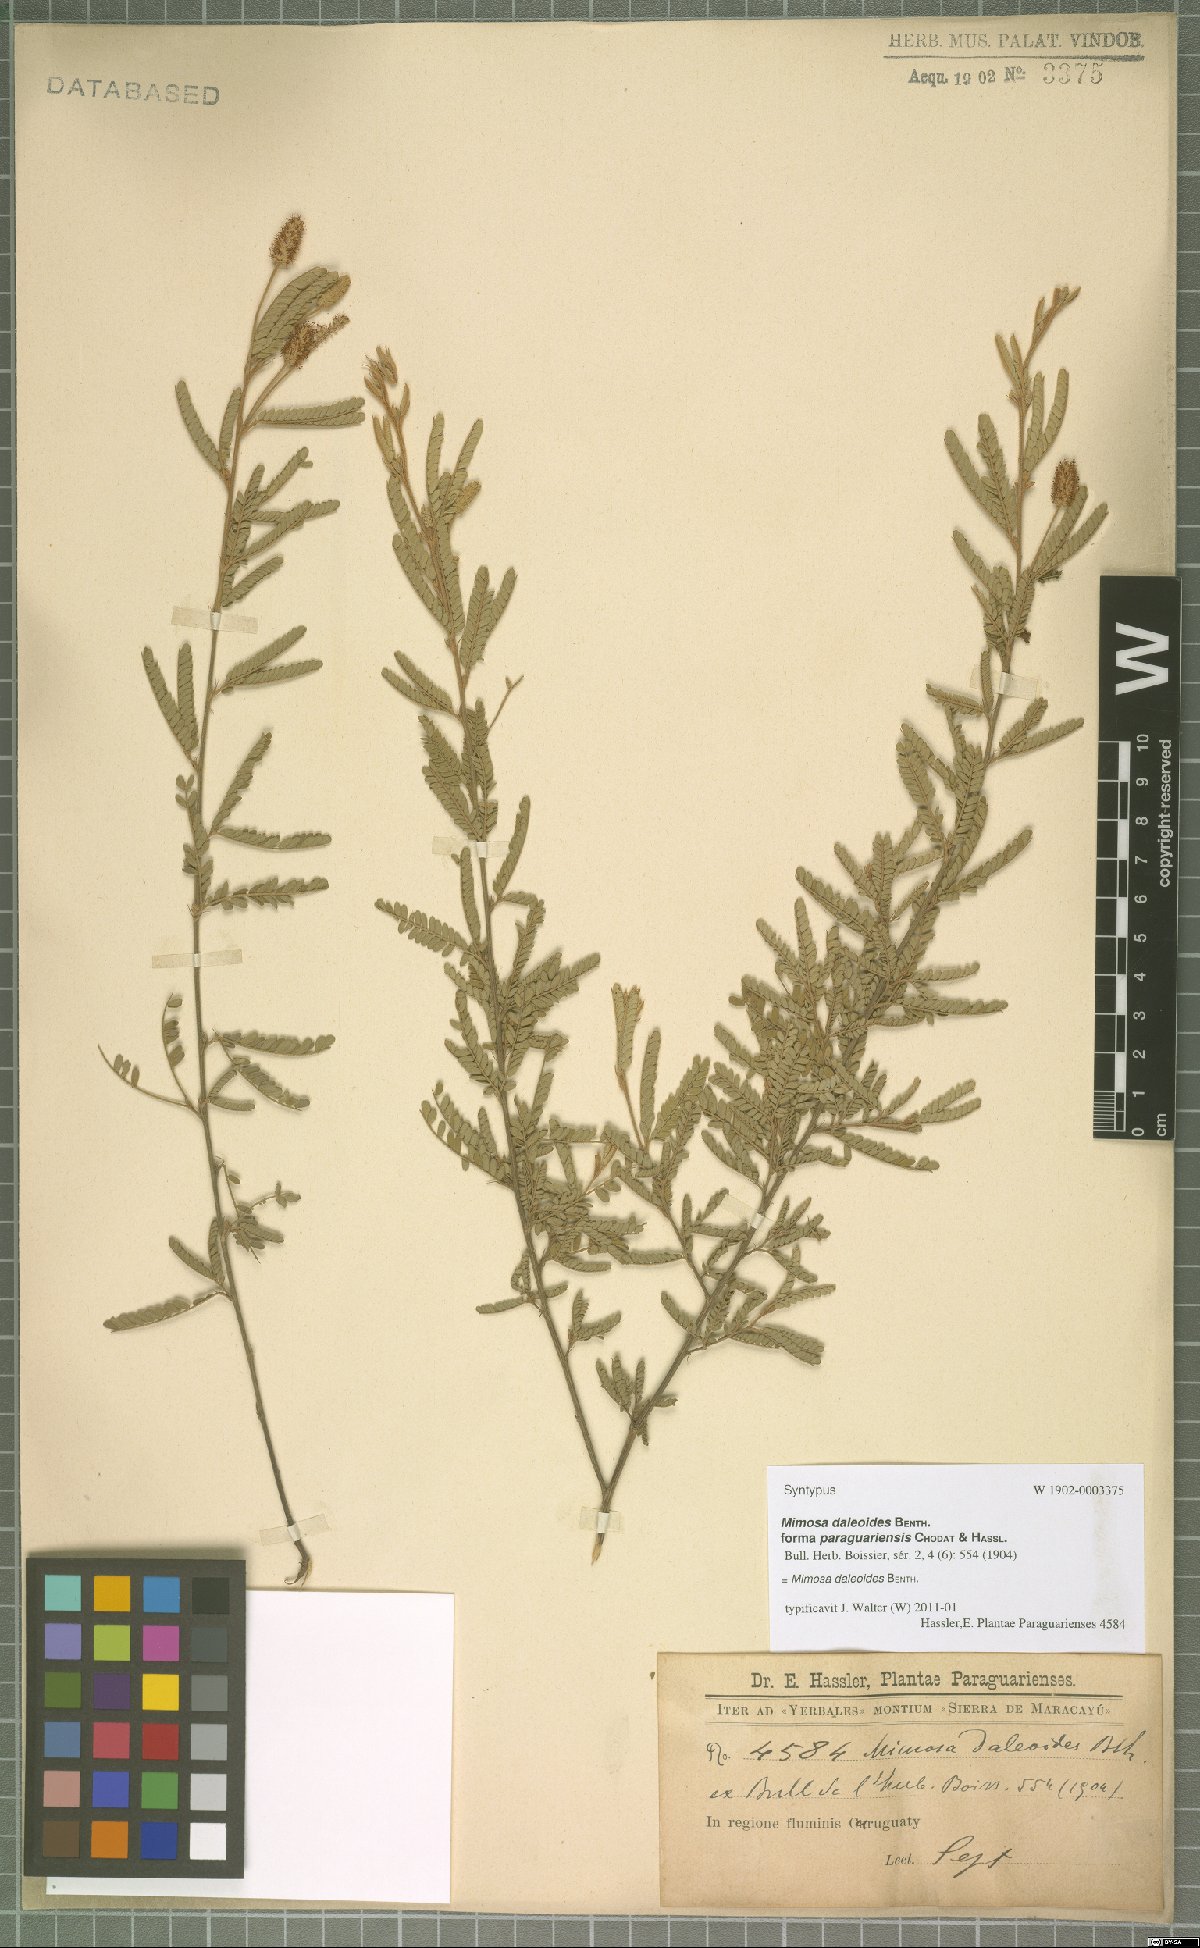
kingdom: Plantae
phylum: Tracheophyta
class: Magnoliopsida
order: Fabales
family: Fabaceae
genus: Mimosa
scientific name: Mimosa daleoides
